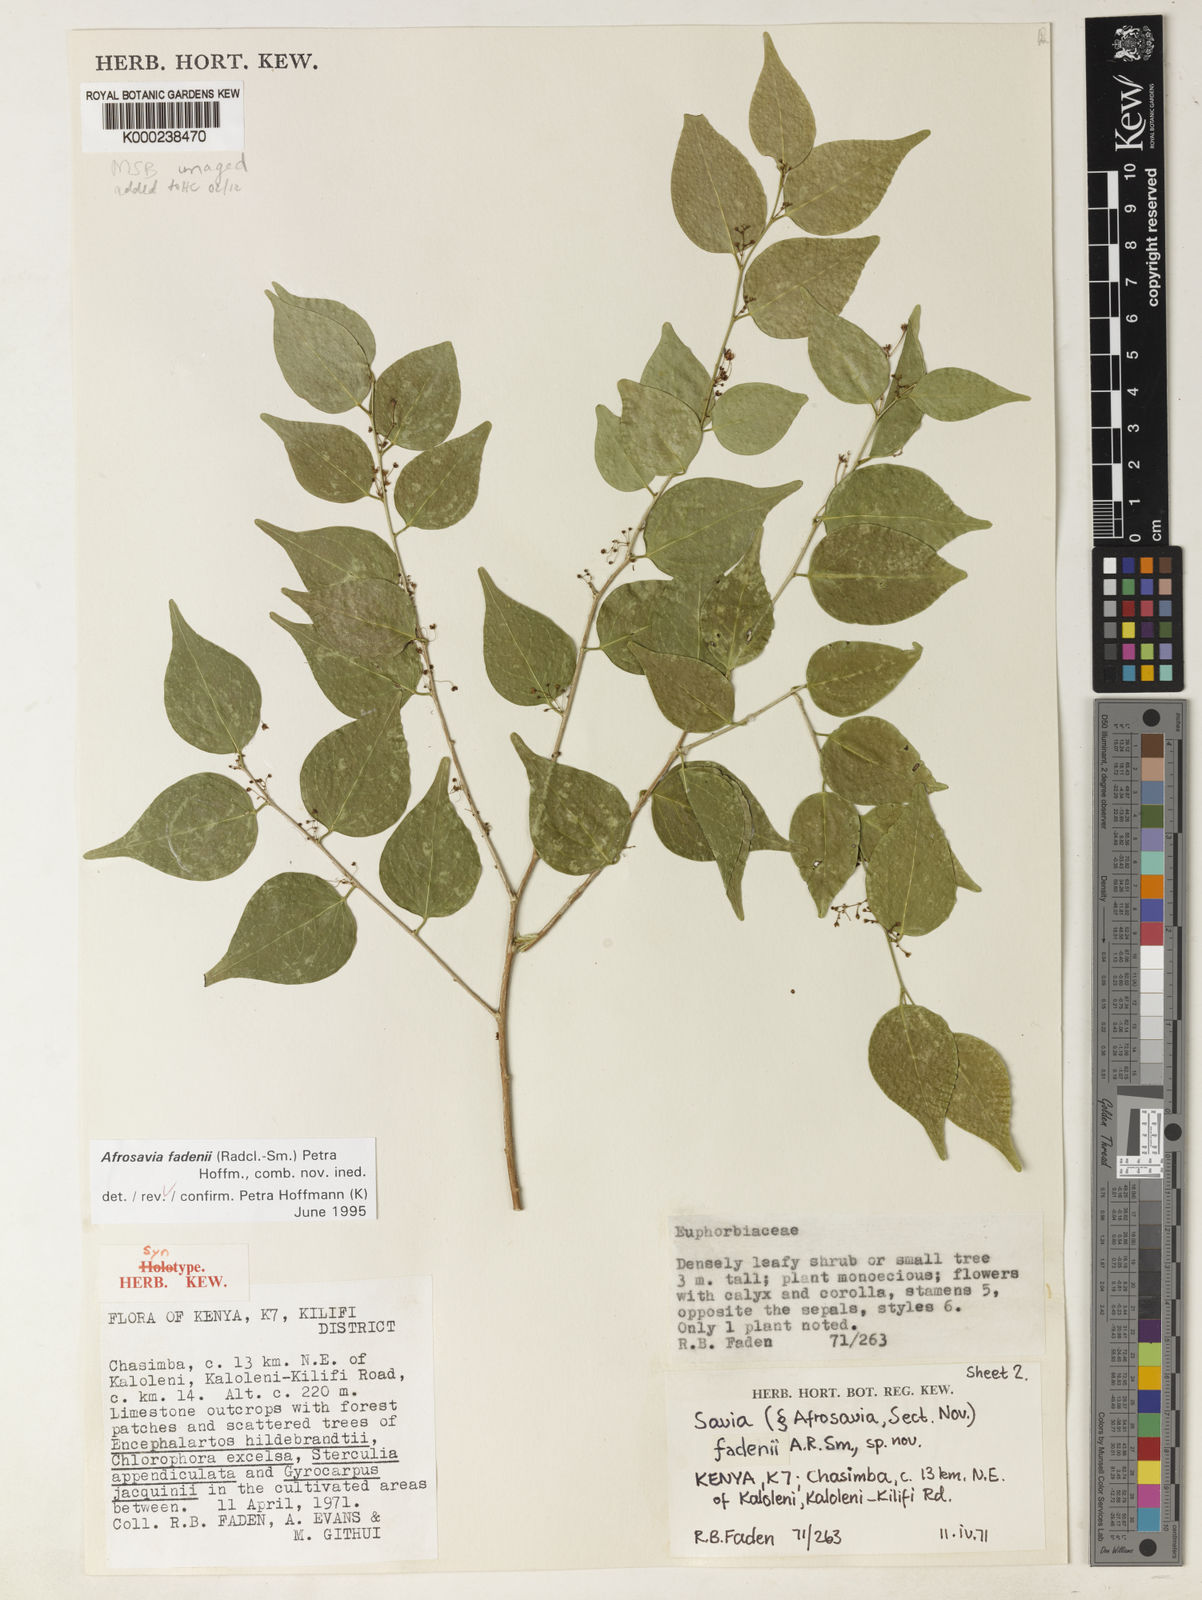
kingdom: Plantae
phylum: Tracheophyta
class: Magnoliopsida
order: Malpighiales
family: Phyllanthaceae
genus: Wielandia
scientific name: Wielandia fadenii
